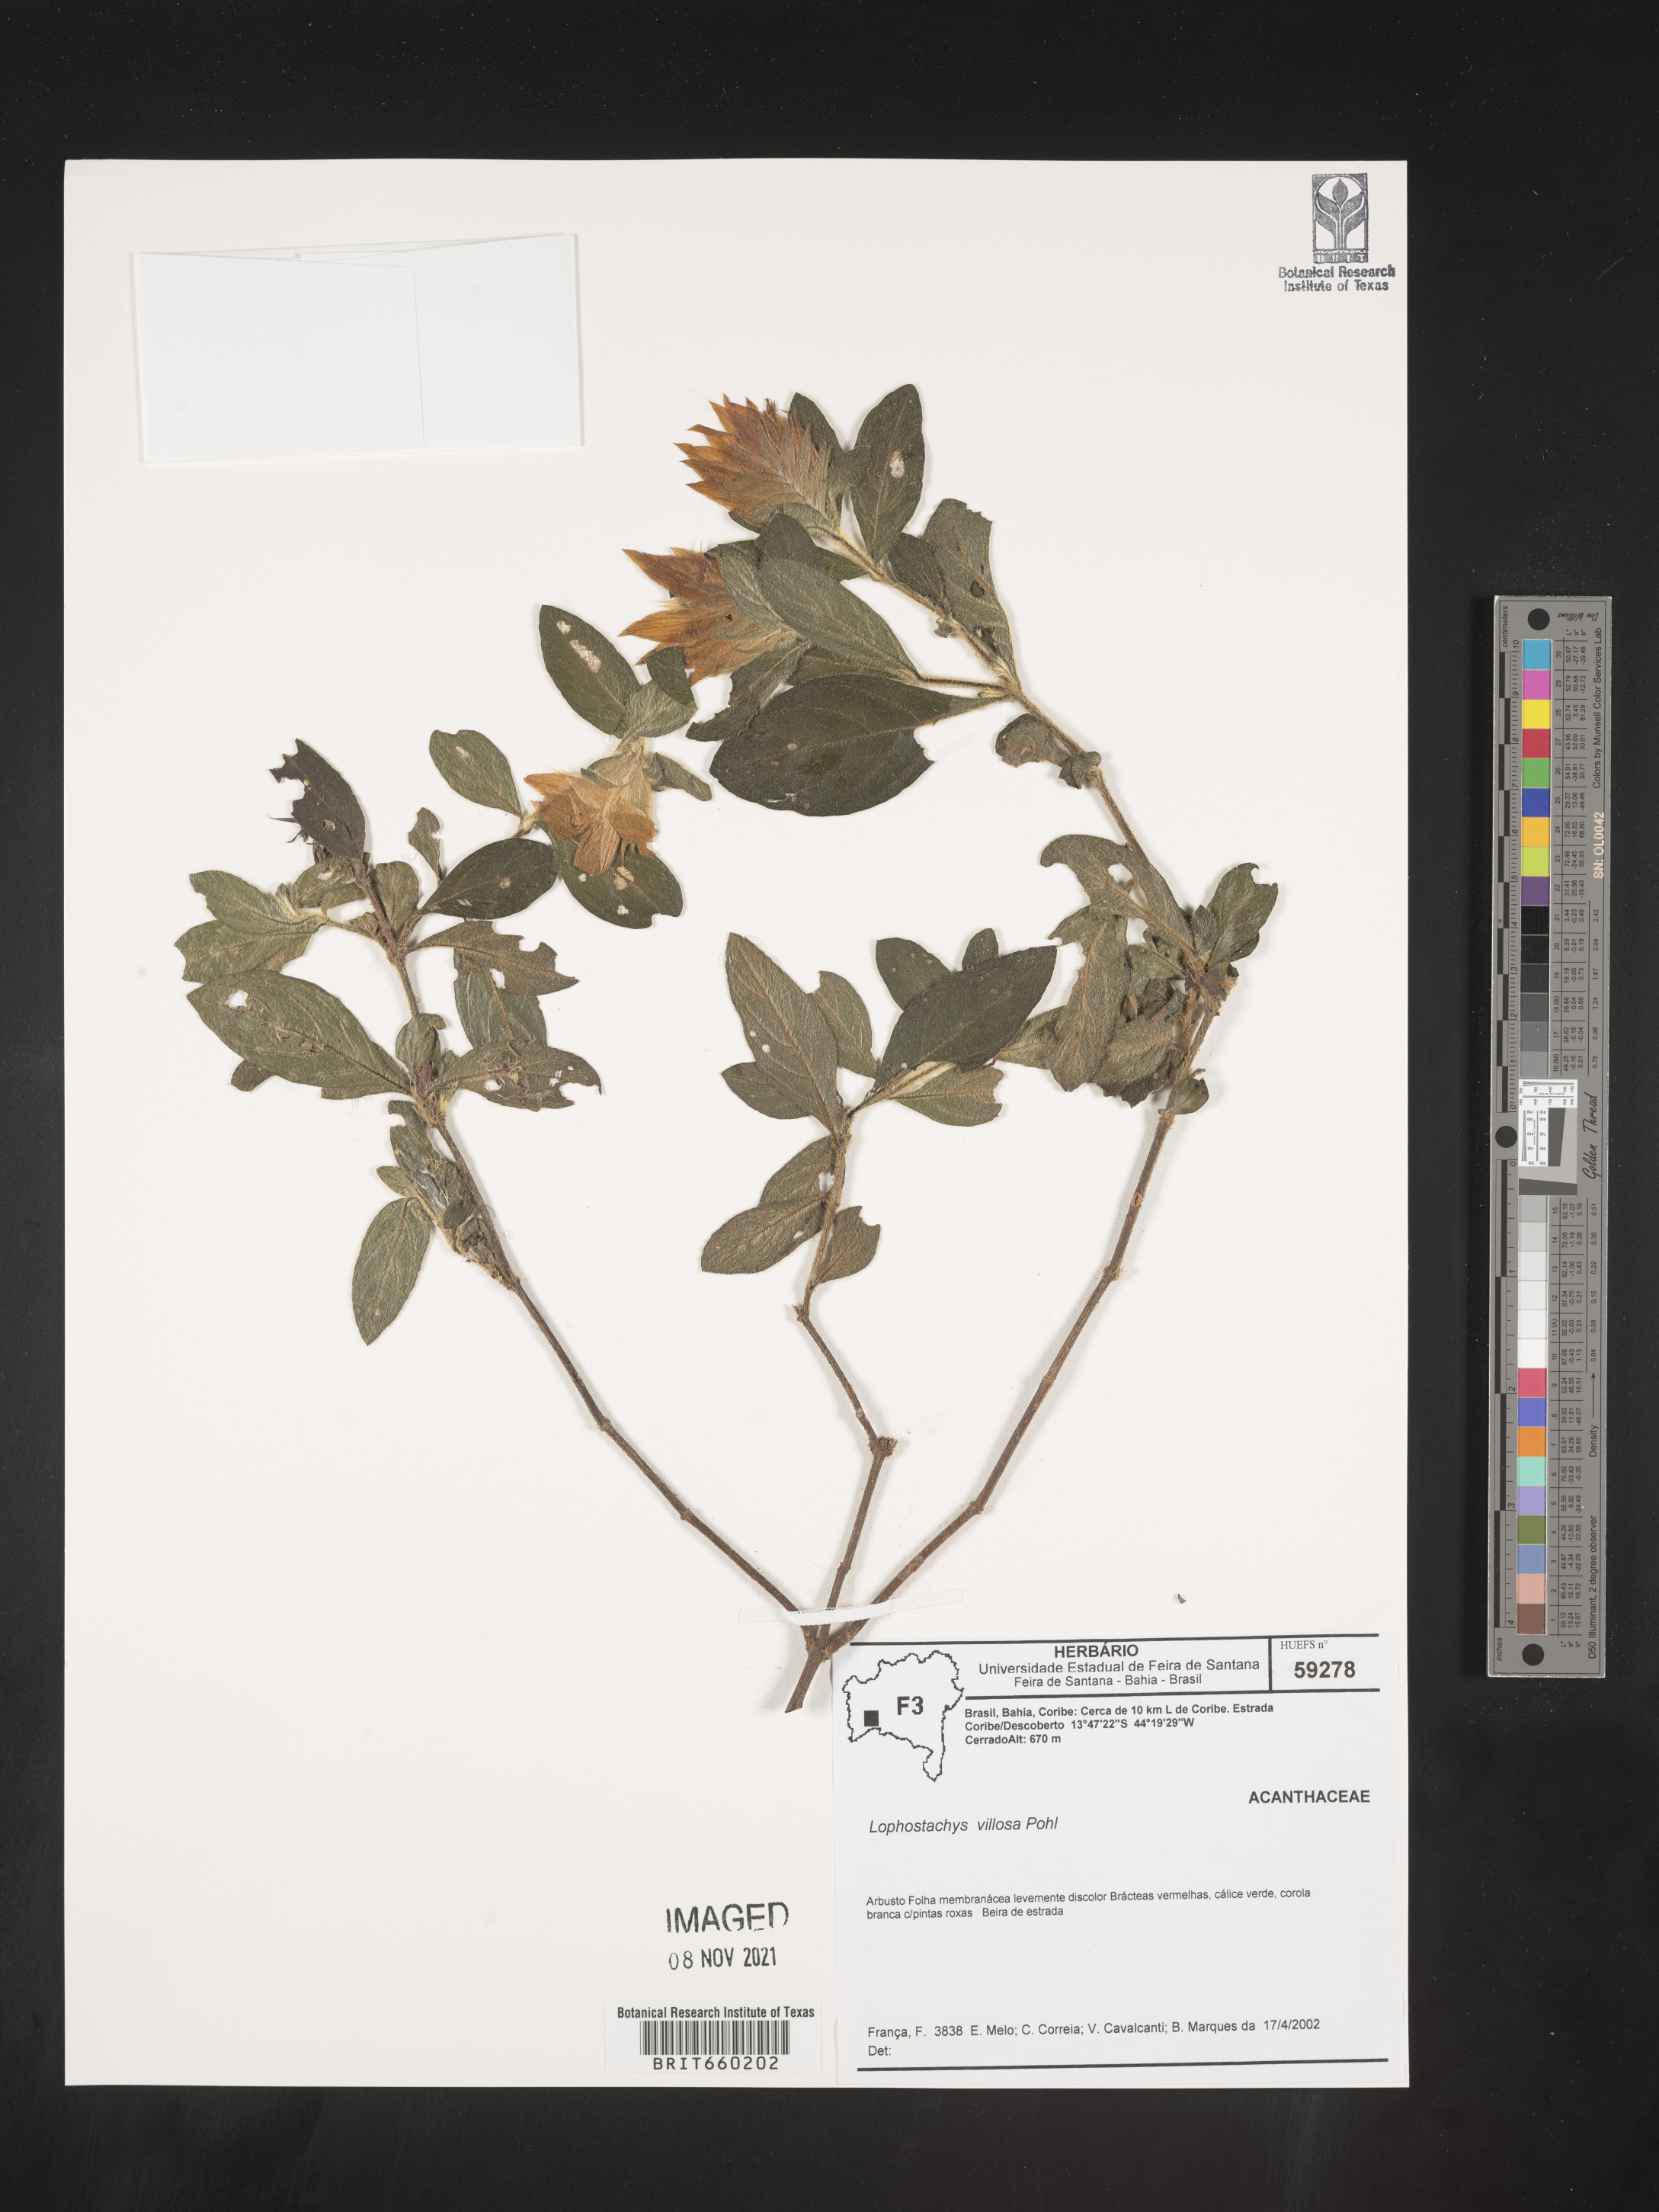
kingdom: Plantae
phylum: Tracheophyta
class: Magnoliopsida
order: Lamiales
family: Acanthaceae
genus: Lepidagathis
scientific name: Lepidagathis
